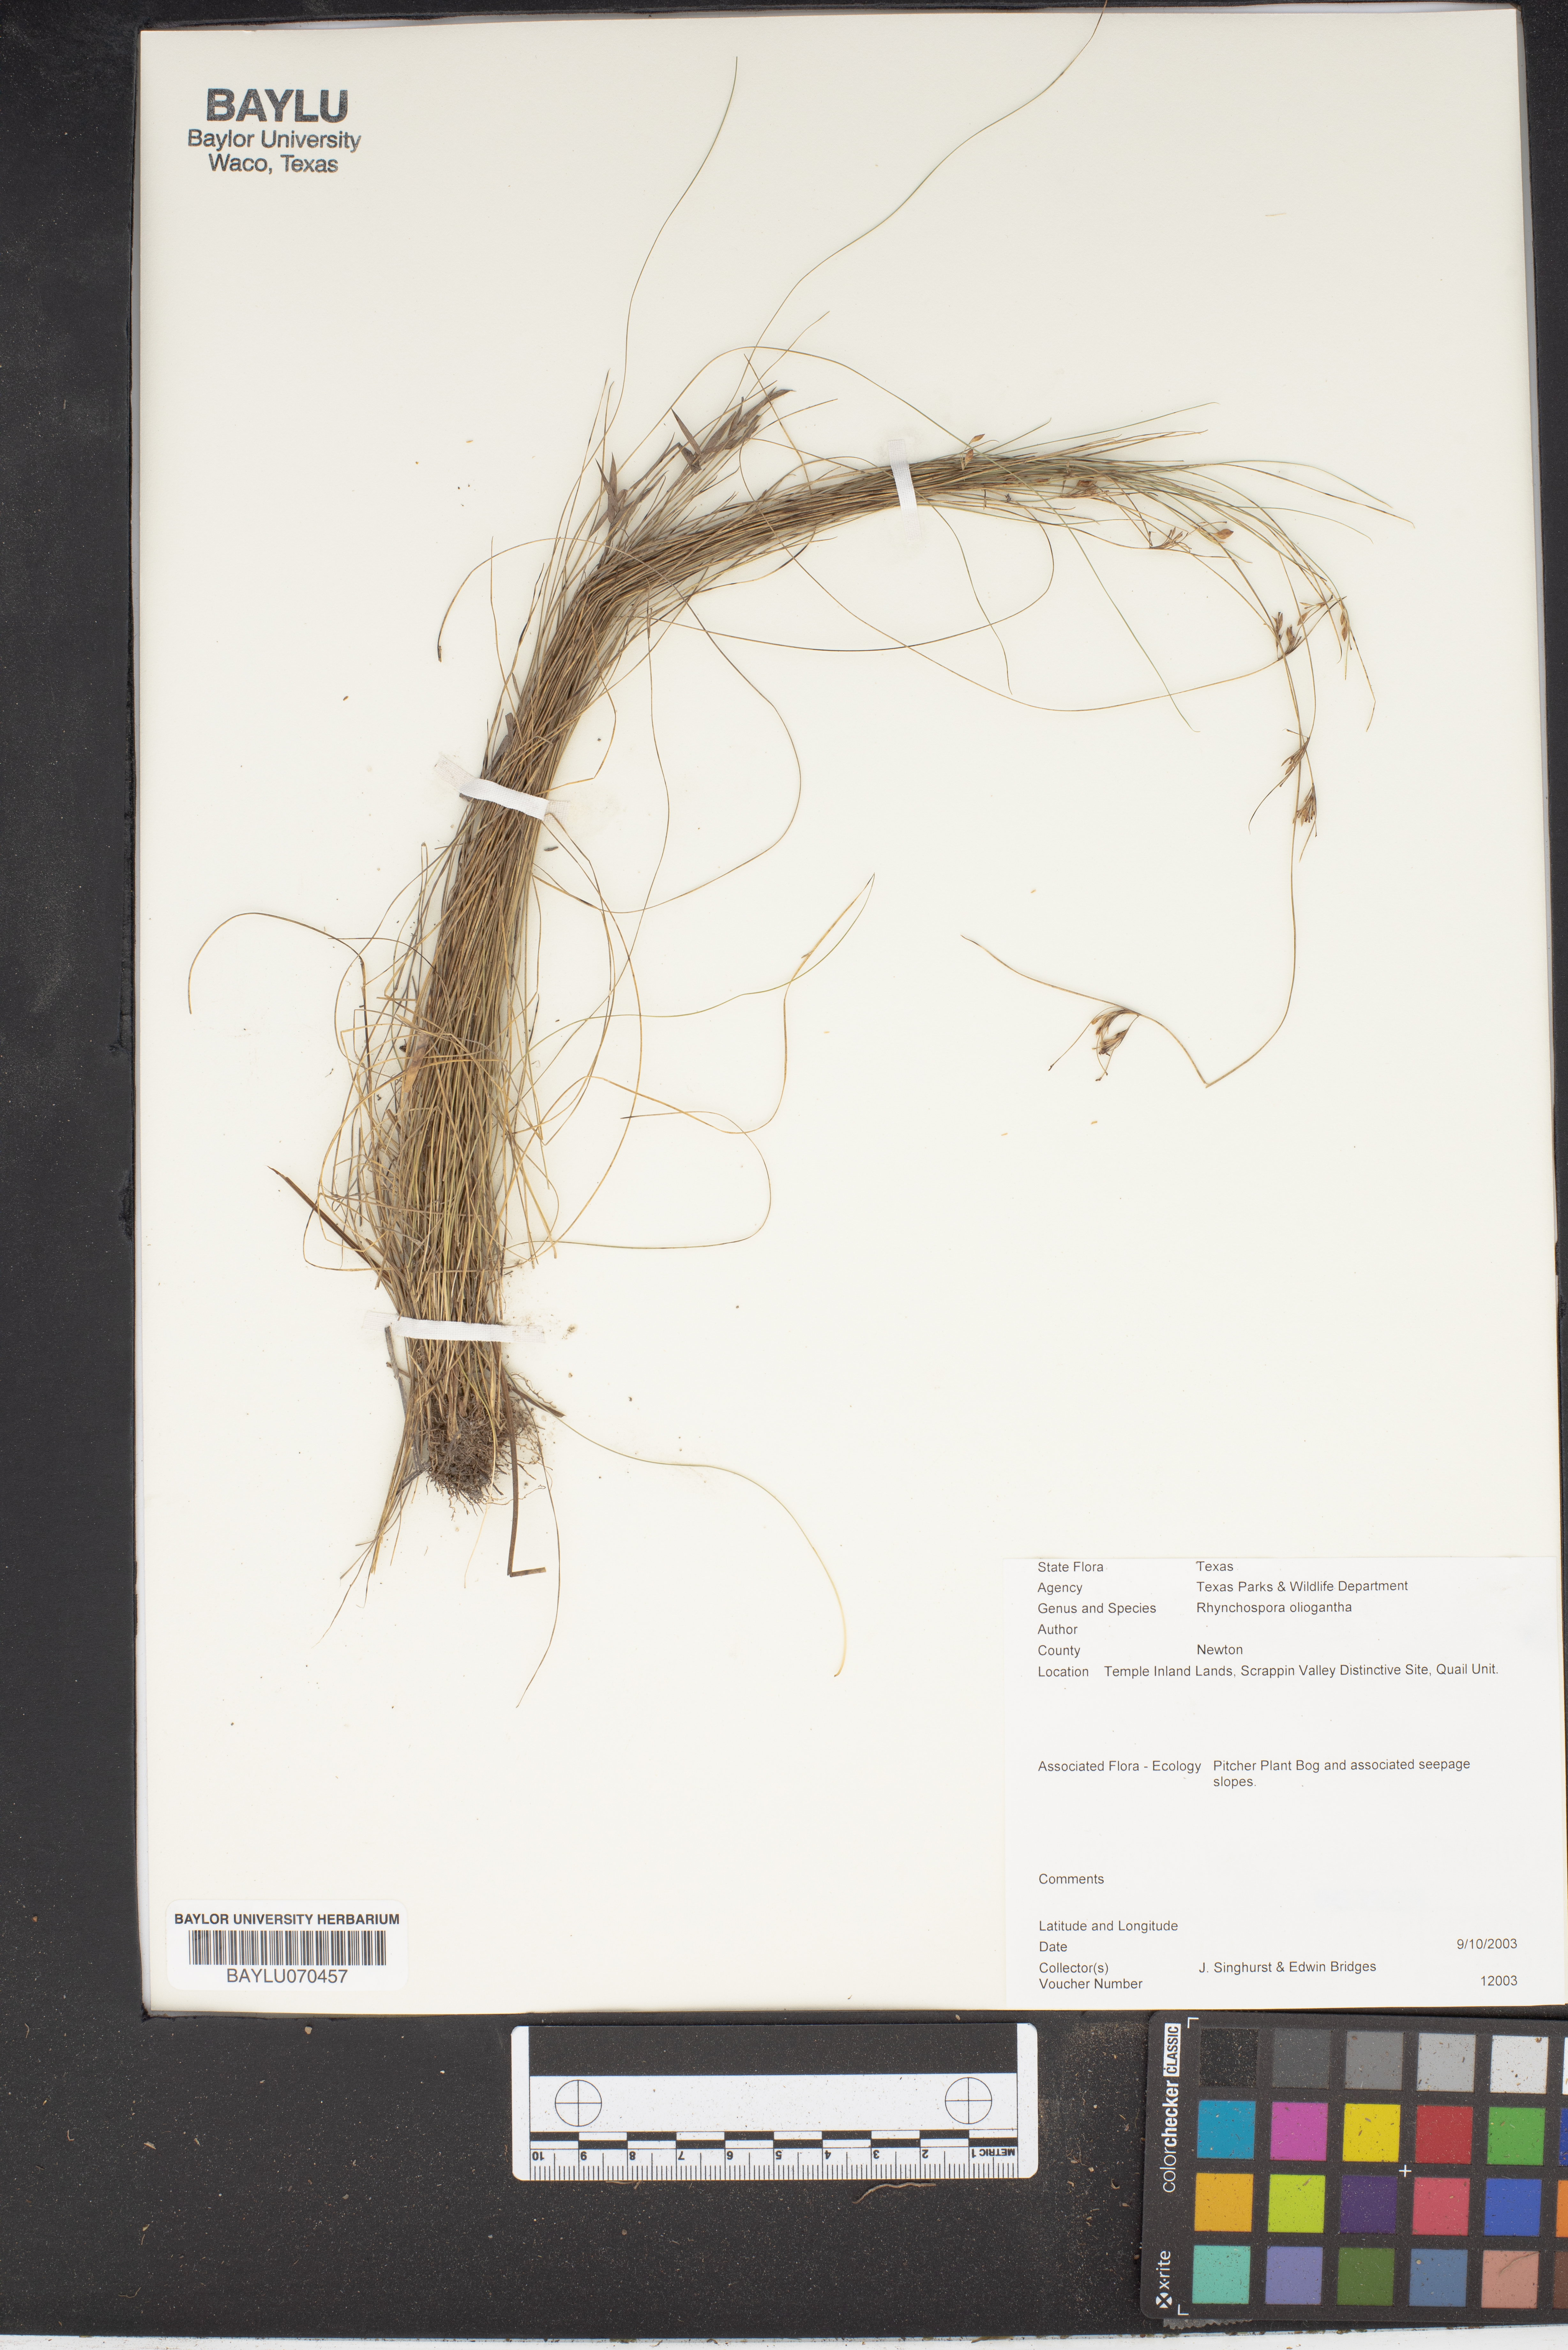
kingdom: Plantae
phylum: Tracheophyta
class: Liliopsida
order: Poales
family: Cyperaceae
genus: Rhynchospora
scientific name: Rhynchospora oligantha
